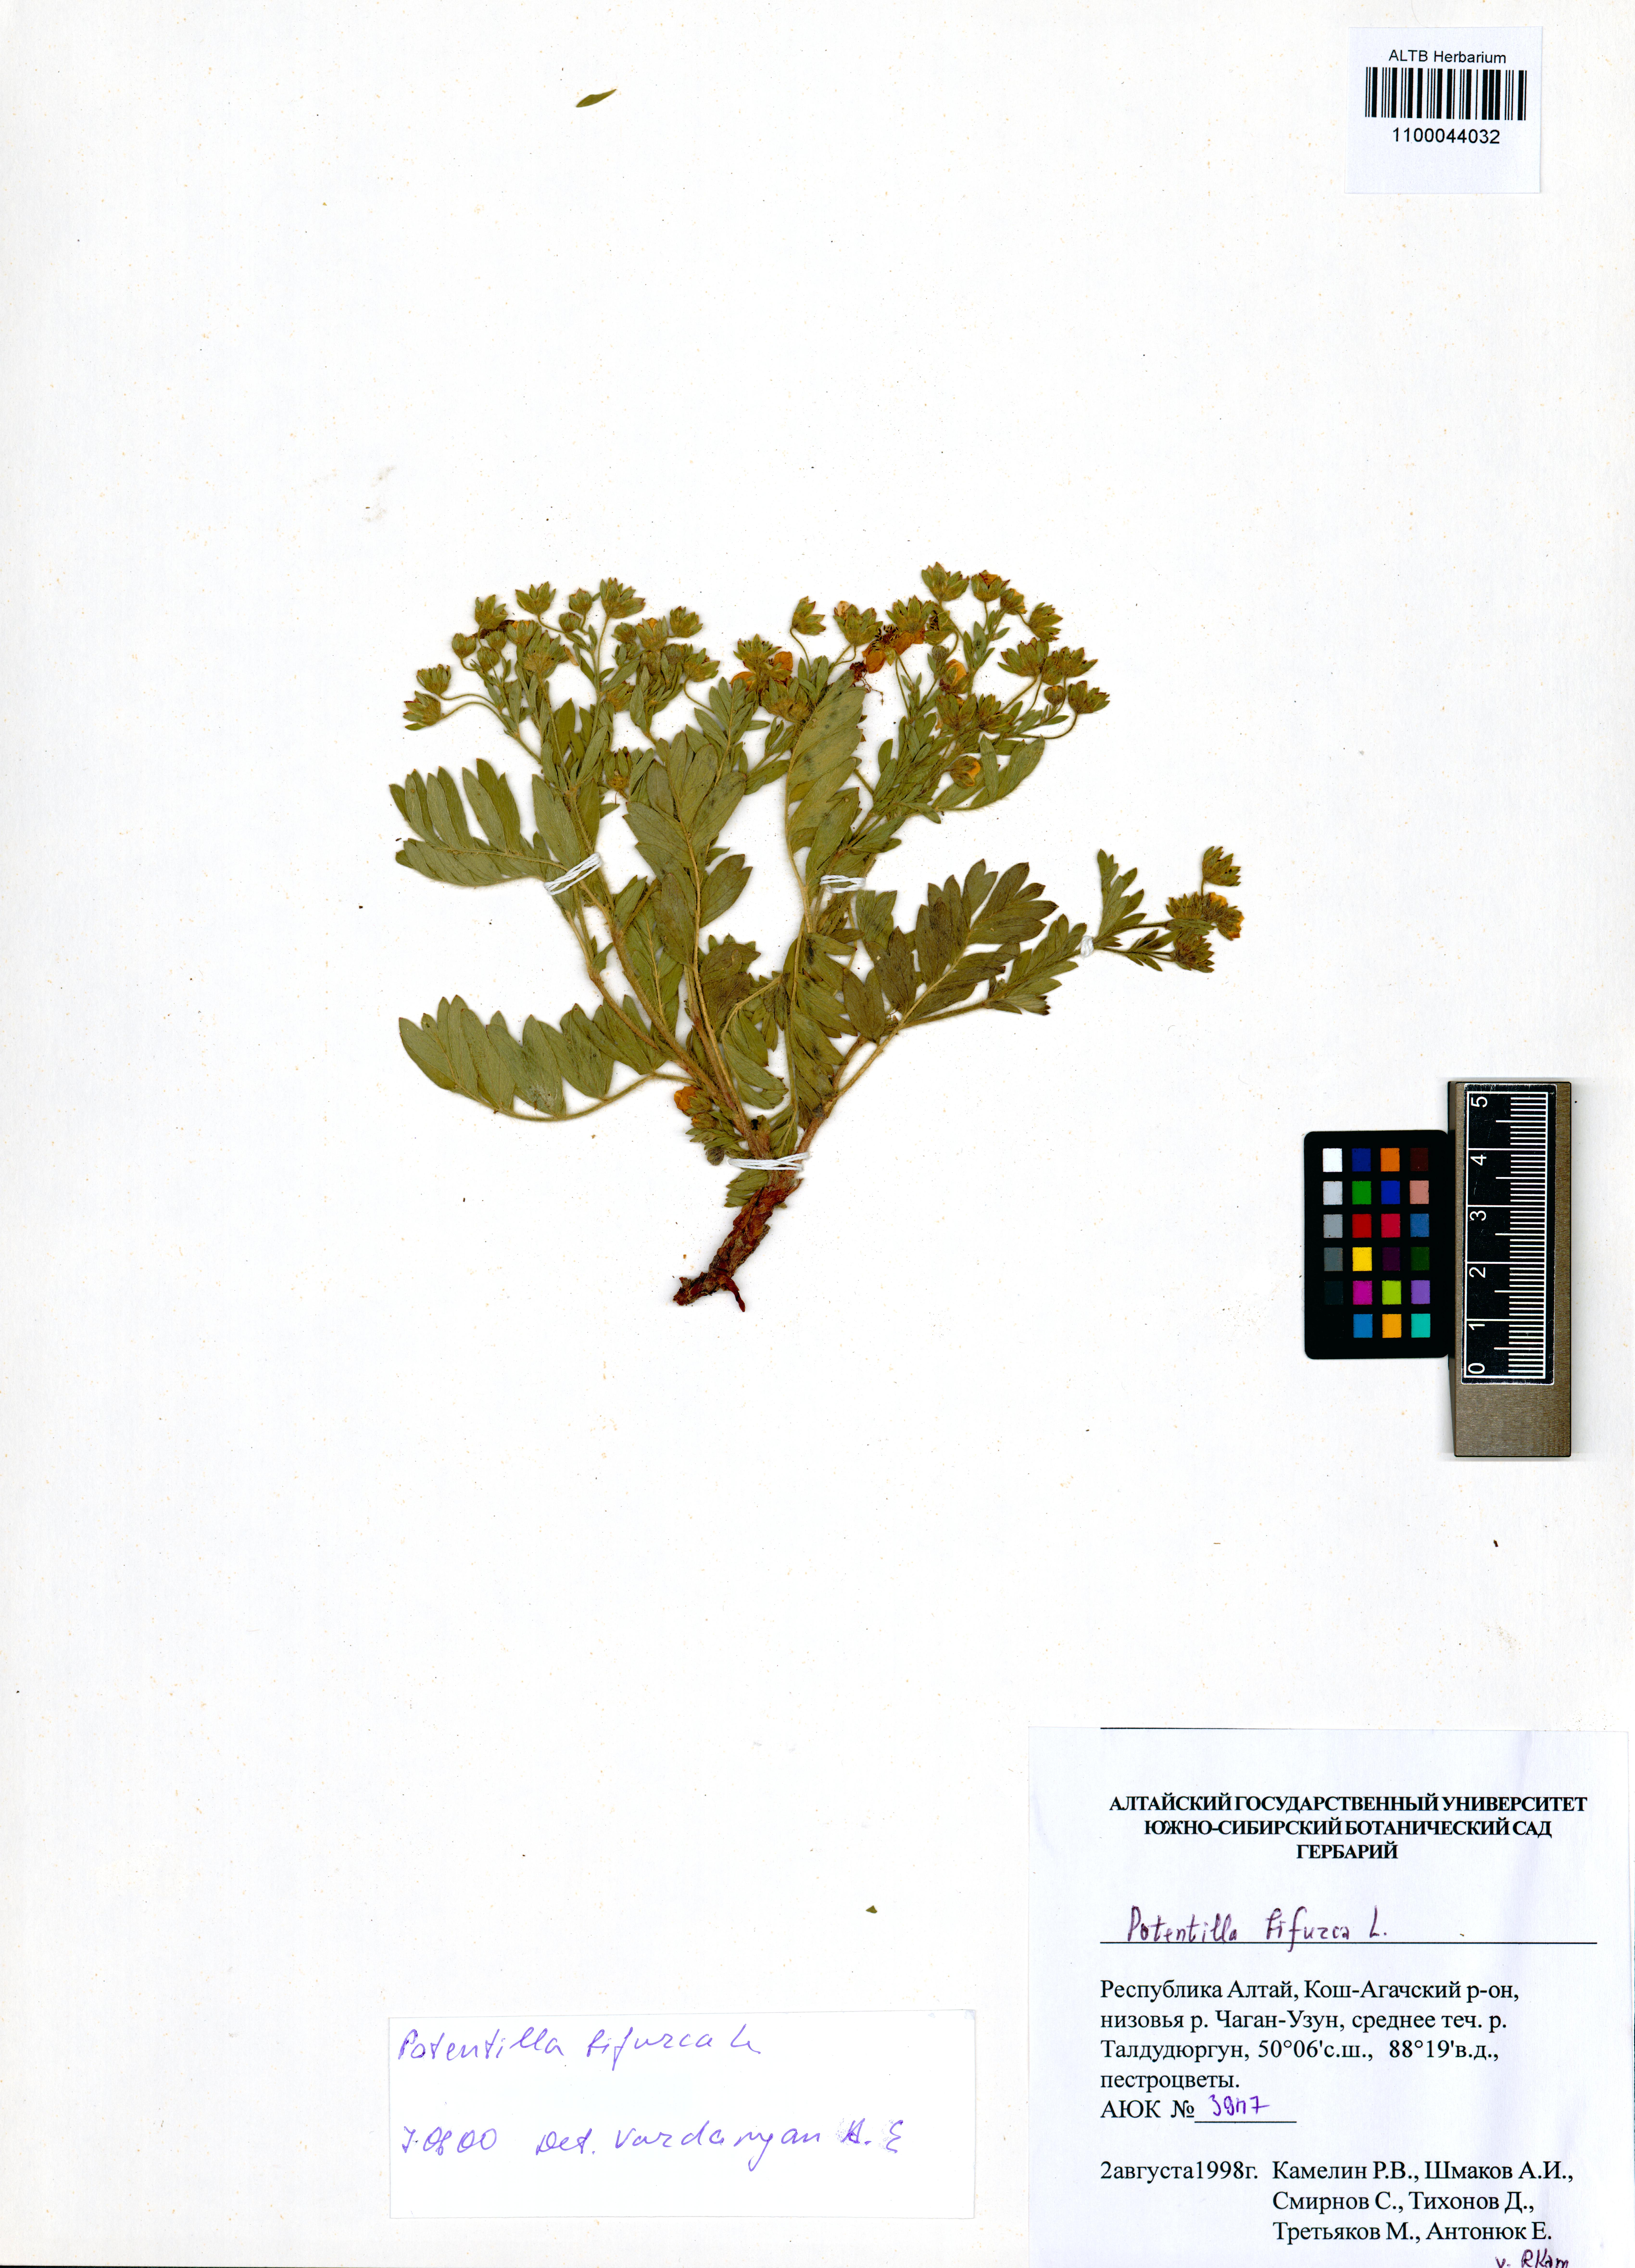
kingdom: Plantae
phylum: Tracheophyta
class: Magnoliopsida
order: Rosales
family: Rosaceae
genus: Sibbaldianthe
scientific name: Sibbaldianthe bifurca
